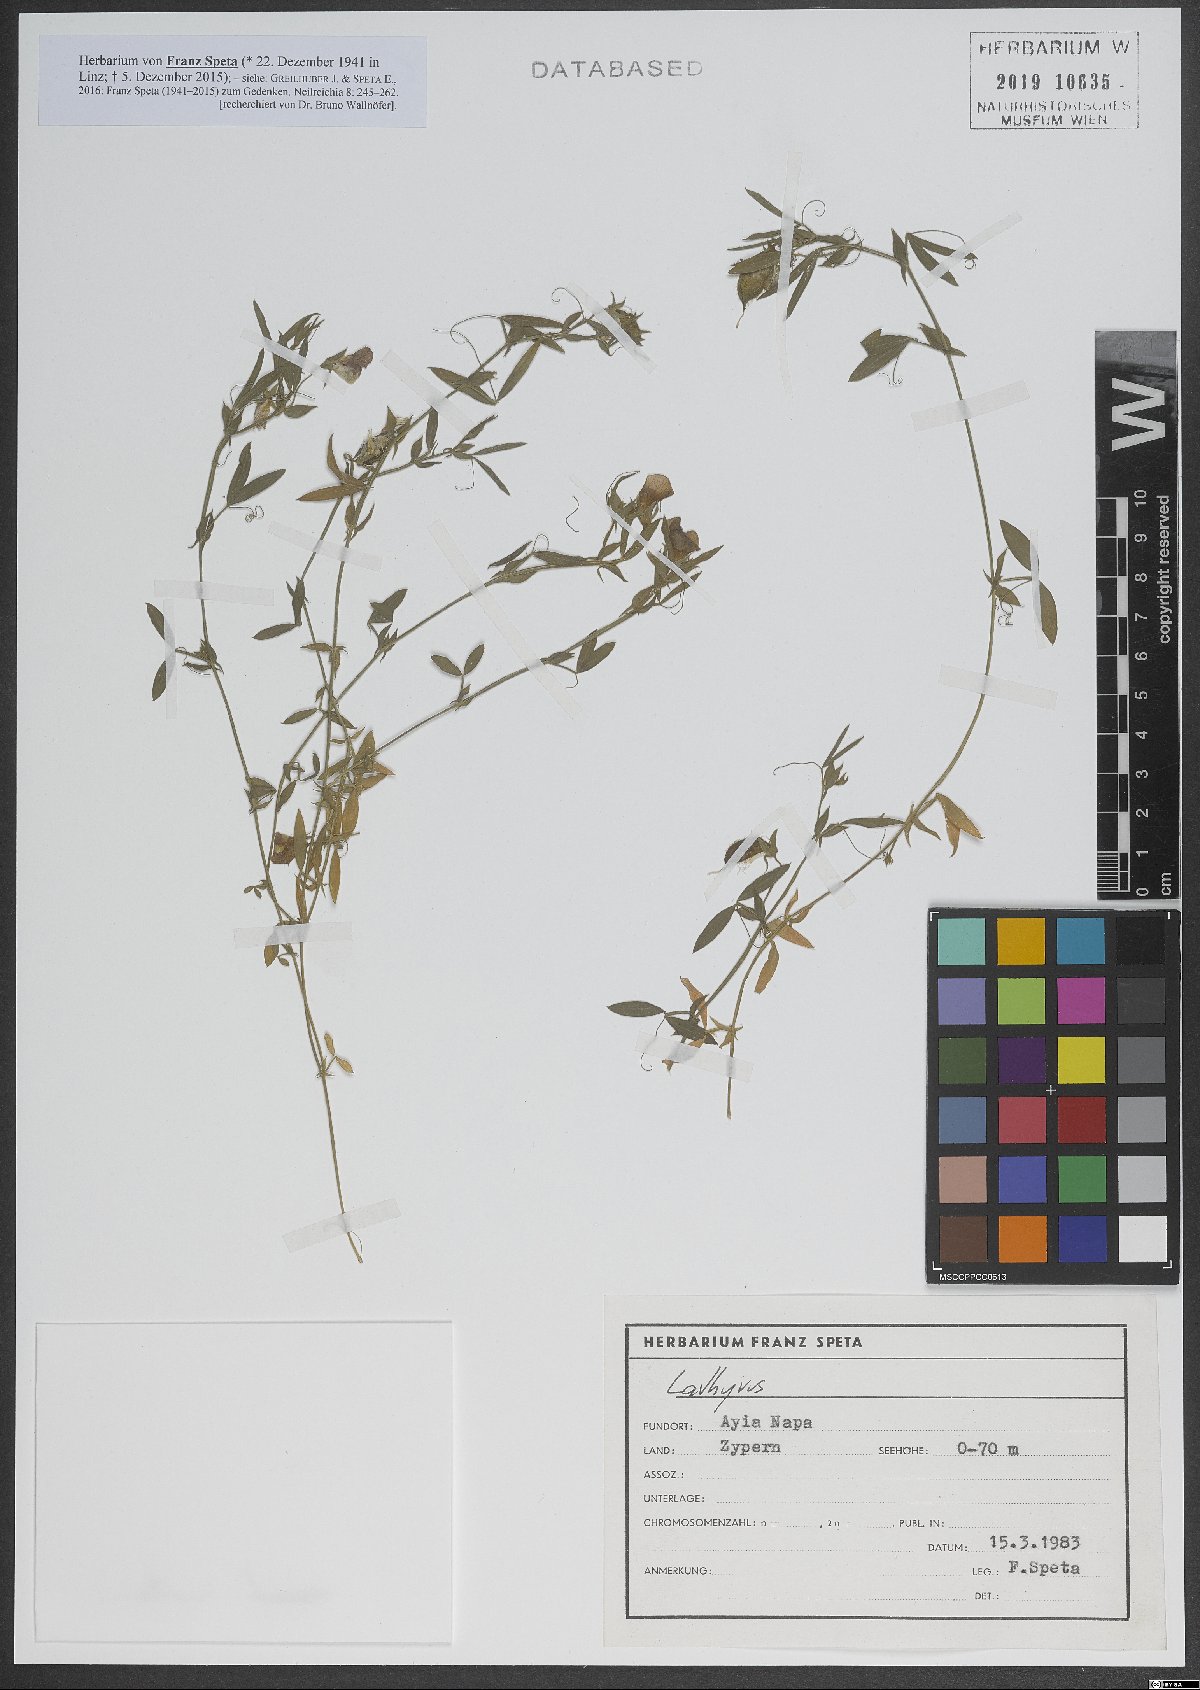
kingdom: Plantae
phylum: Tracheophyta
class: Magnoliopsida
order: Fabales
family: Fabaceae
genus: Lathyrus
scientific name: Lathyrus
